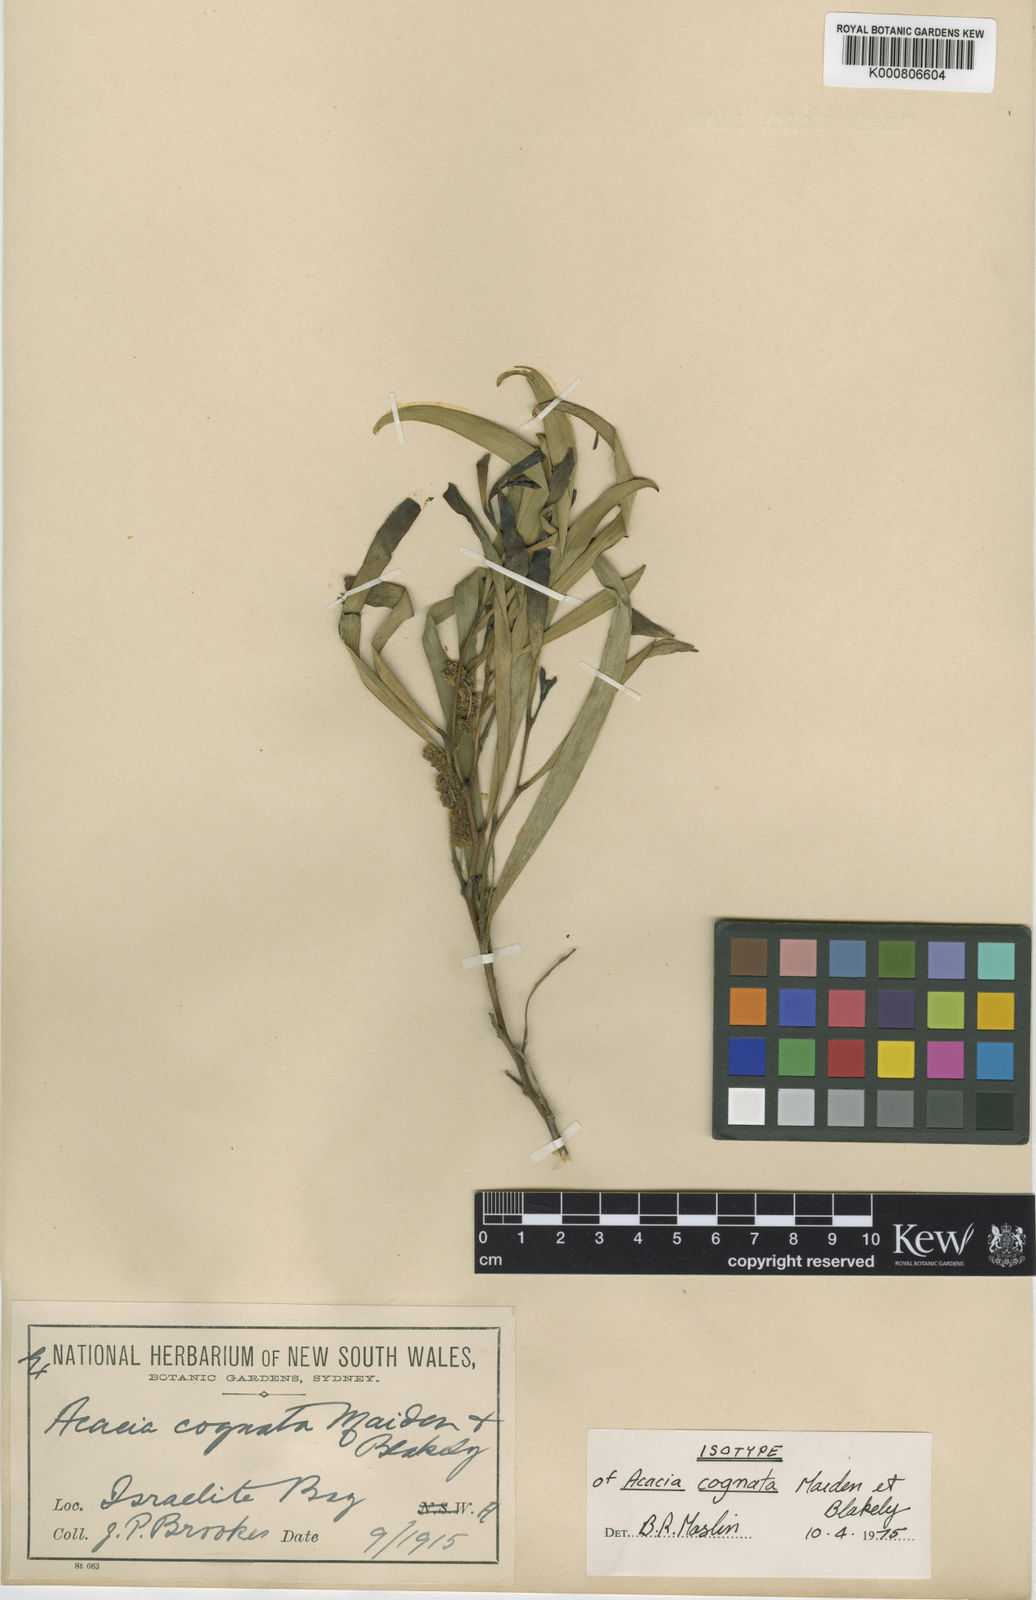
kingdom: Plantae
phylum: Tracheophyta
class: Magnoliopsida
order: Fabales
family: Fabaceae
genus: Acacia
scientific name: Acacia conniana
